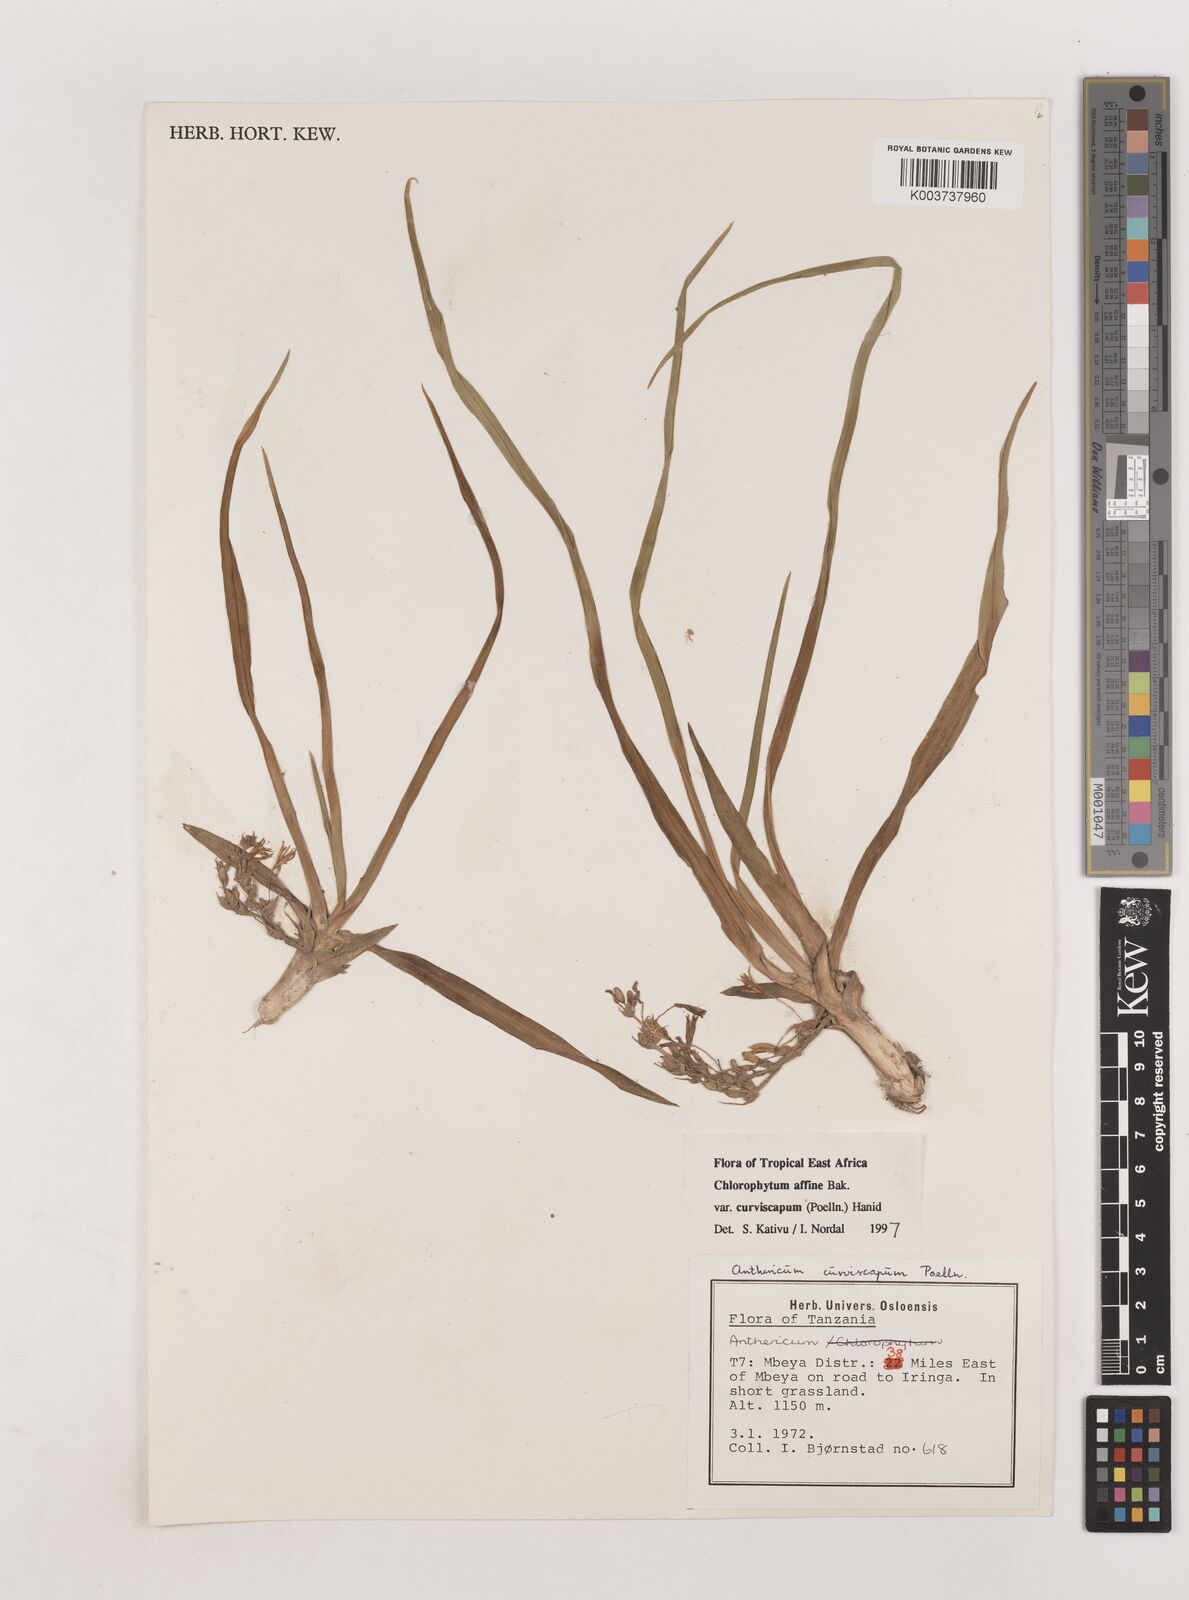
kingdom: Plantae
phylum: Tracheophyta
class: Liliopsida
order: Asparagales
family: Asparagaceae
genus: Chlorophytum
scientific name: Chlorophytum tordense
